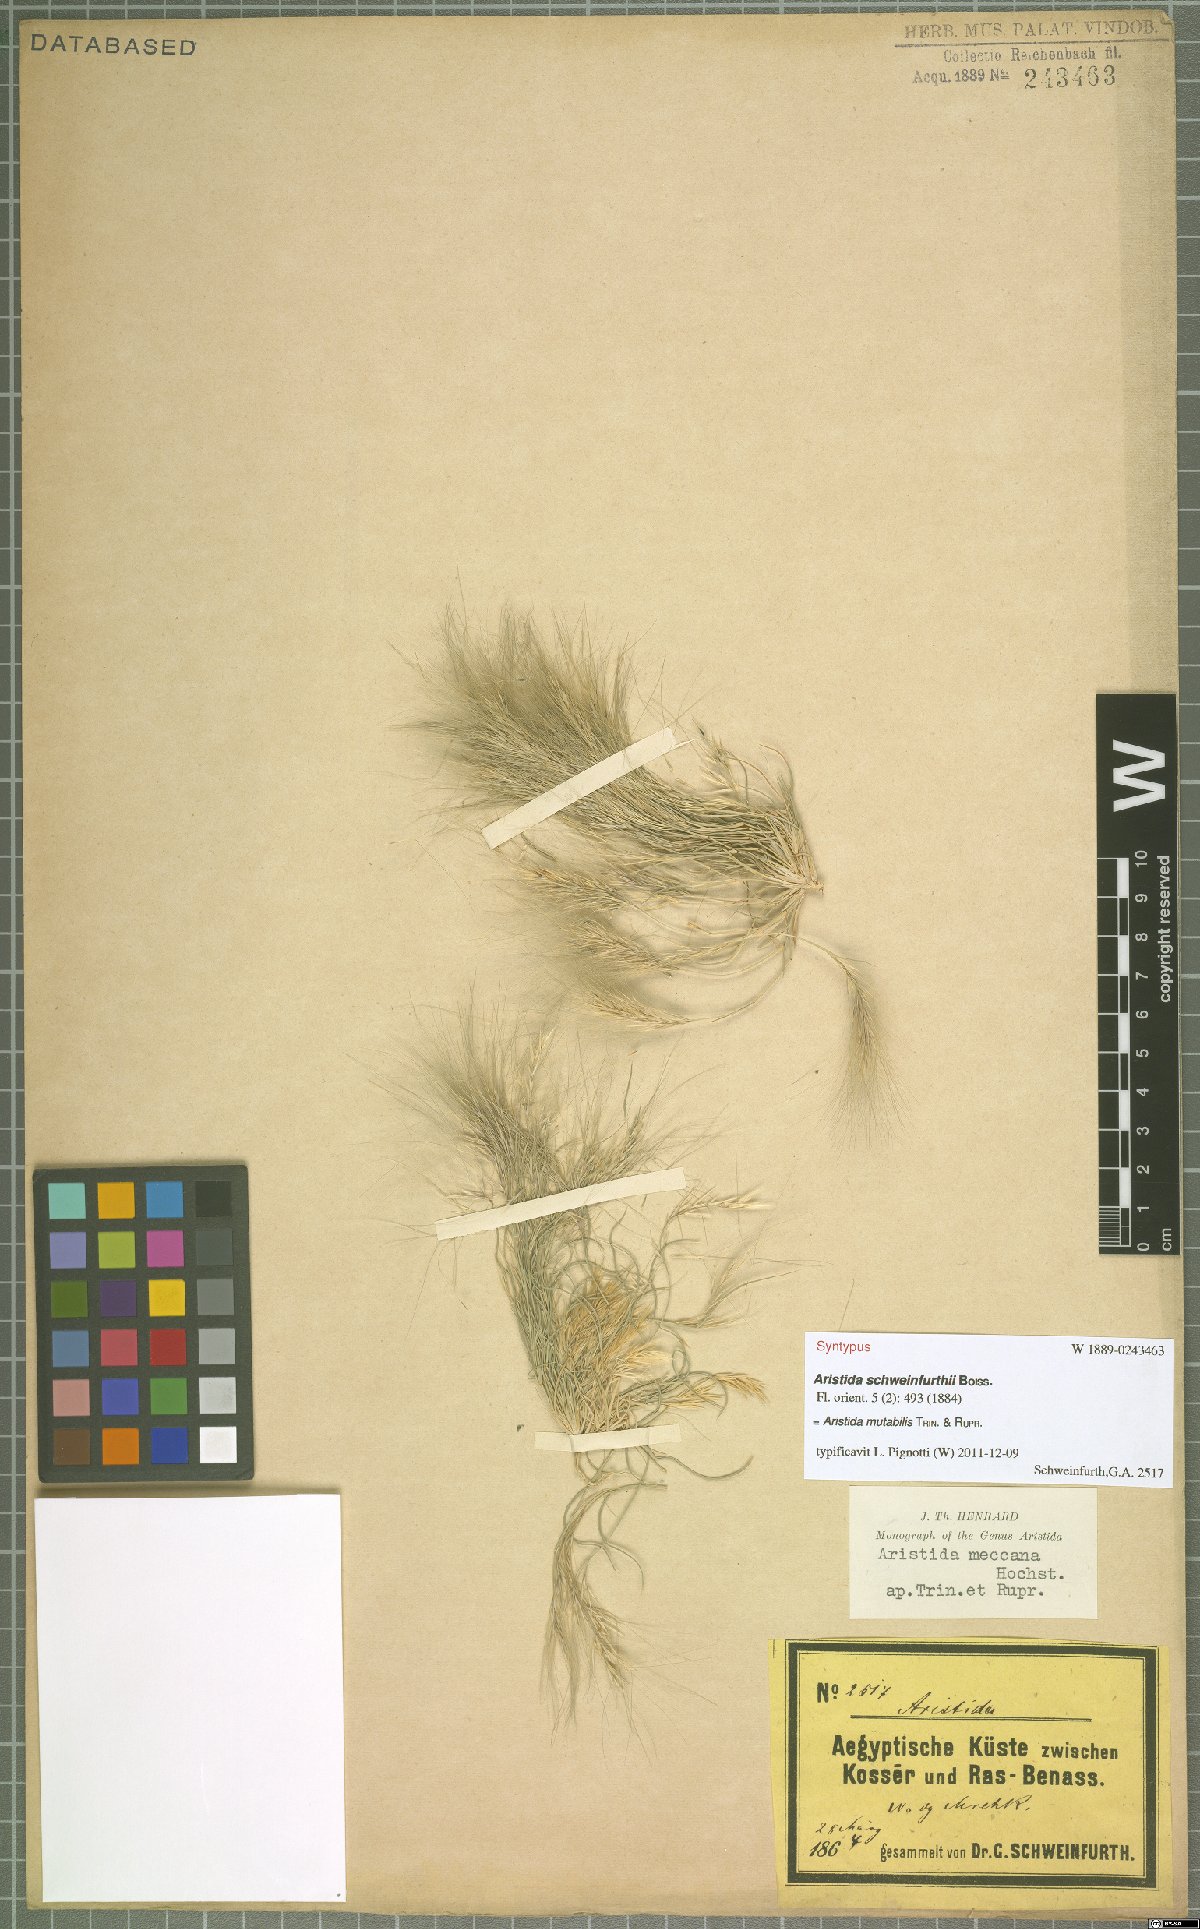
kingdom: Plantae
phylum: Tracheophyta
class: Liliopsida
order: Poales
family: Poaceae
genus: Aristida
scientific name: Aristida mutabilis
